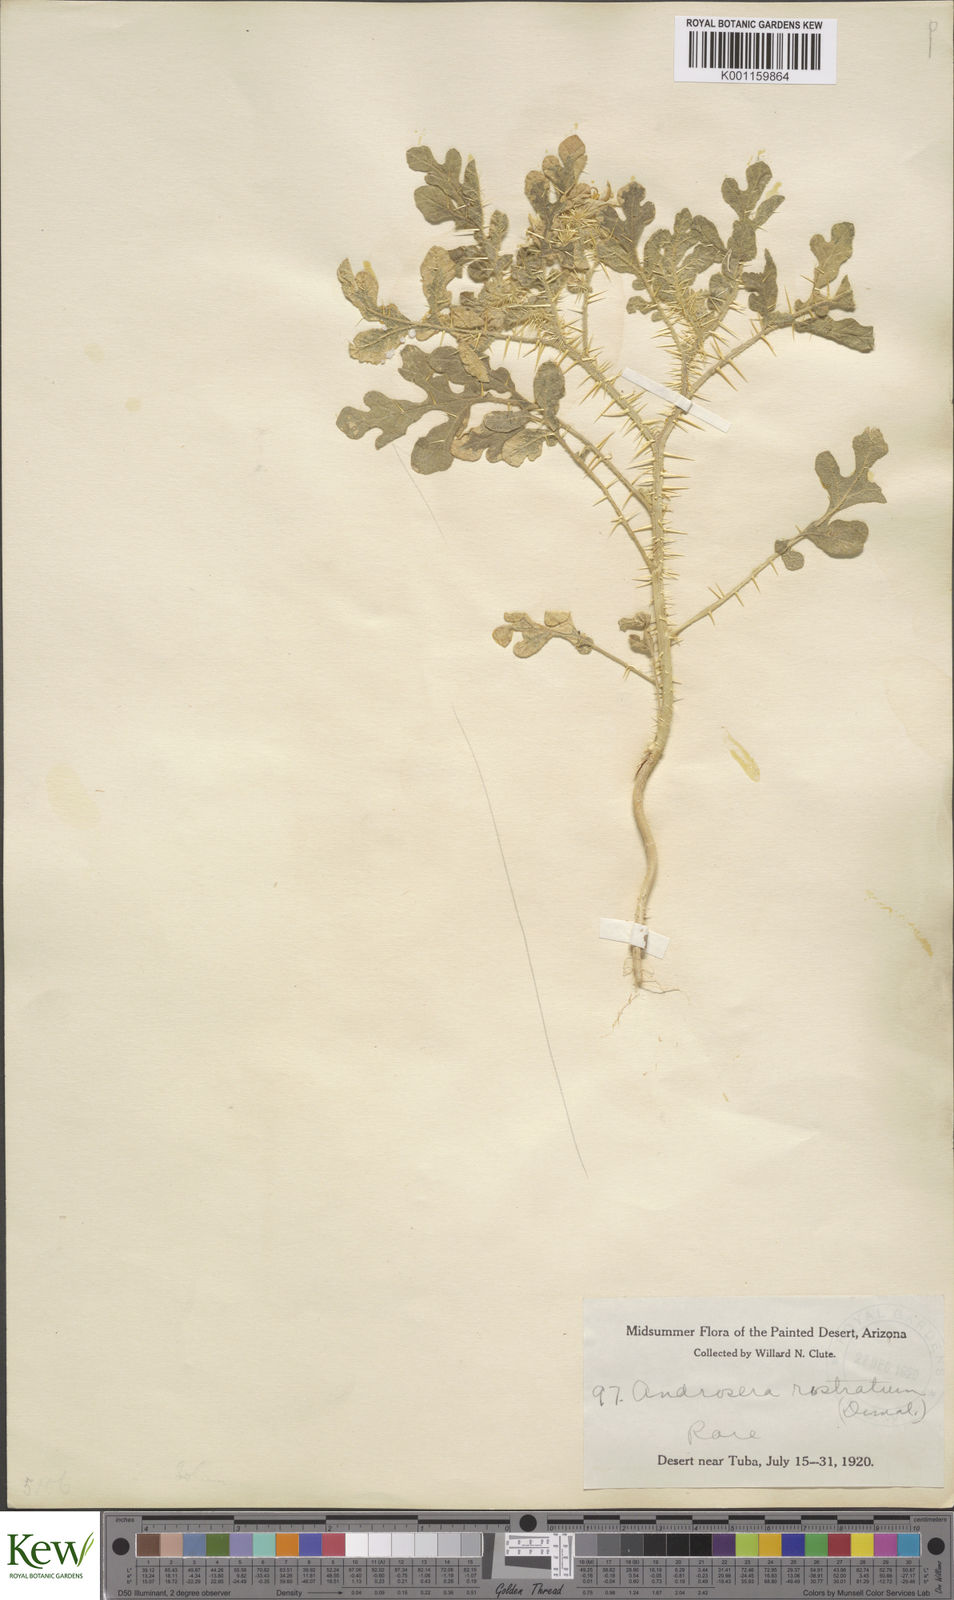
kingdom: Plantae
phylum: Tracheophyta
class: Magnoliopsida
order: Solanales
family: Solanaceae
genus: Solanum
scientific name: Solanum angustifolium
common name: Buffalobur nightshade
